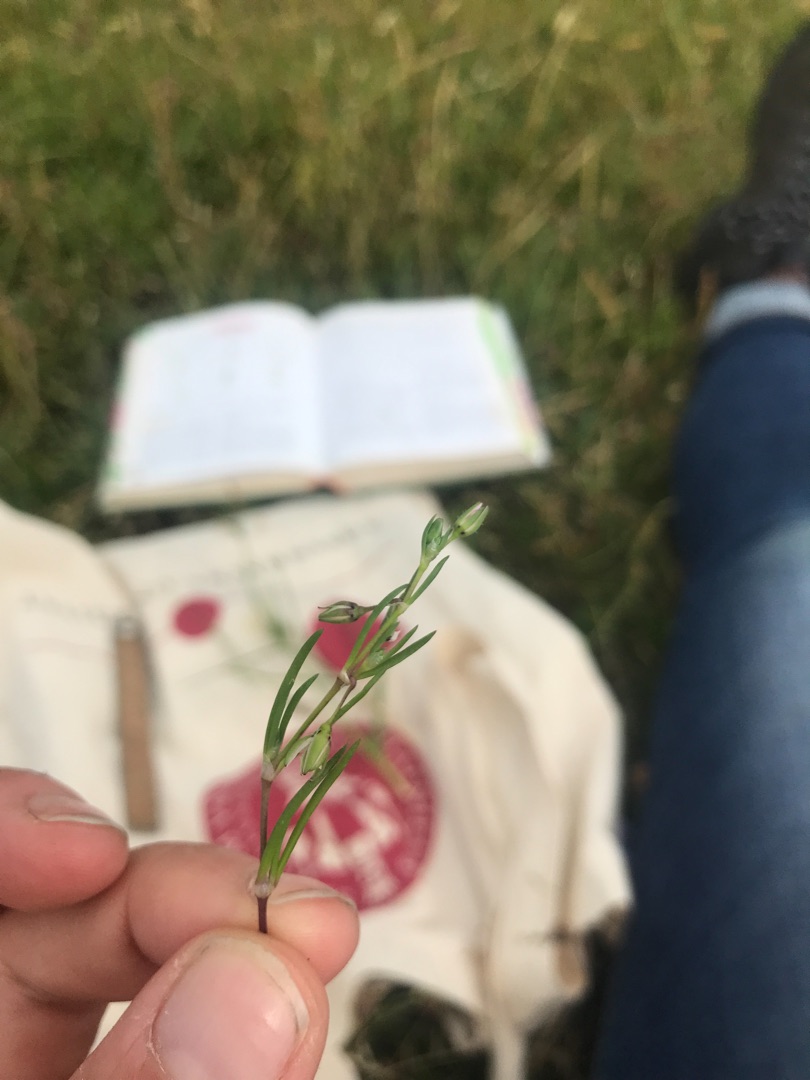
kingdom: Plantae
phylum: Tracheophyta
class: Magnoliopsida
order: Caryophyllales
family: Caryophyllaceae
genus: Spergularia
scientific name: Spergularia
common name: Hindeknæslægten
